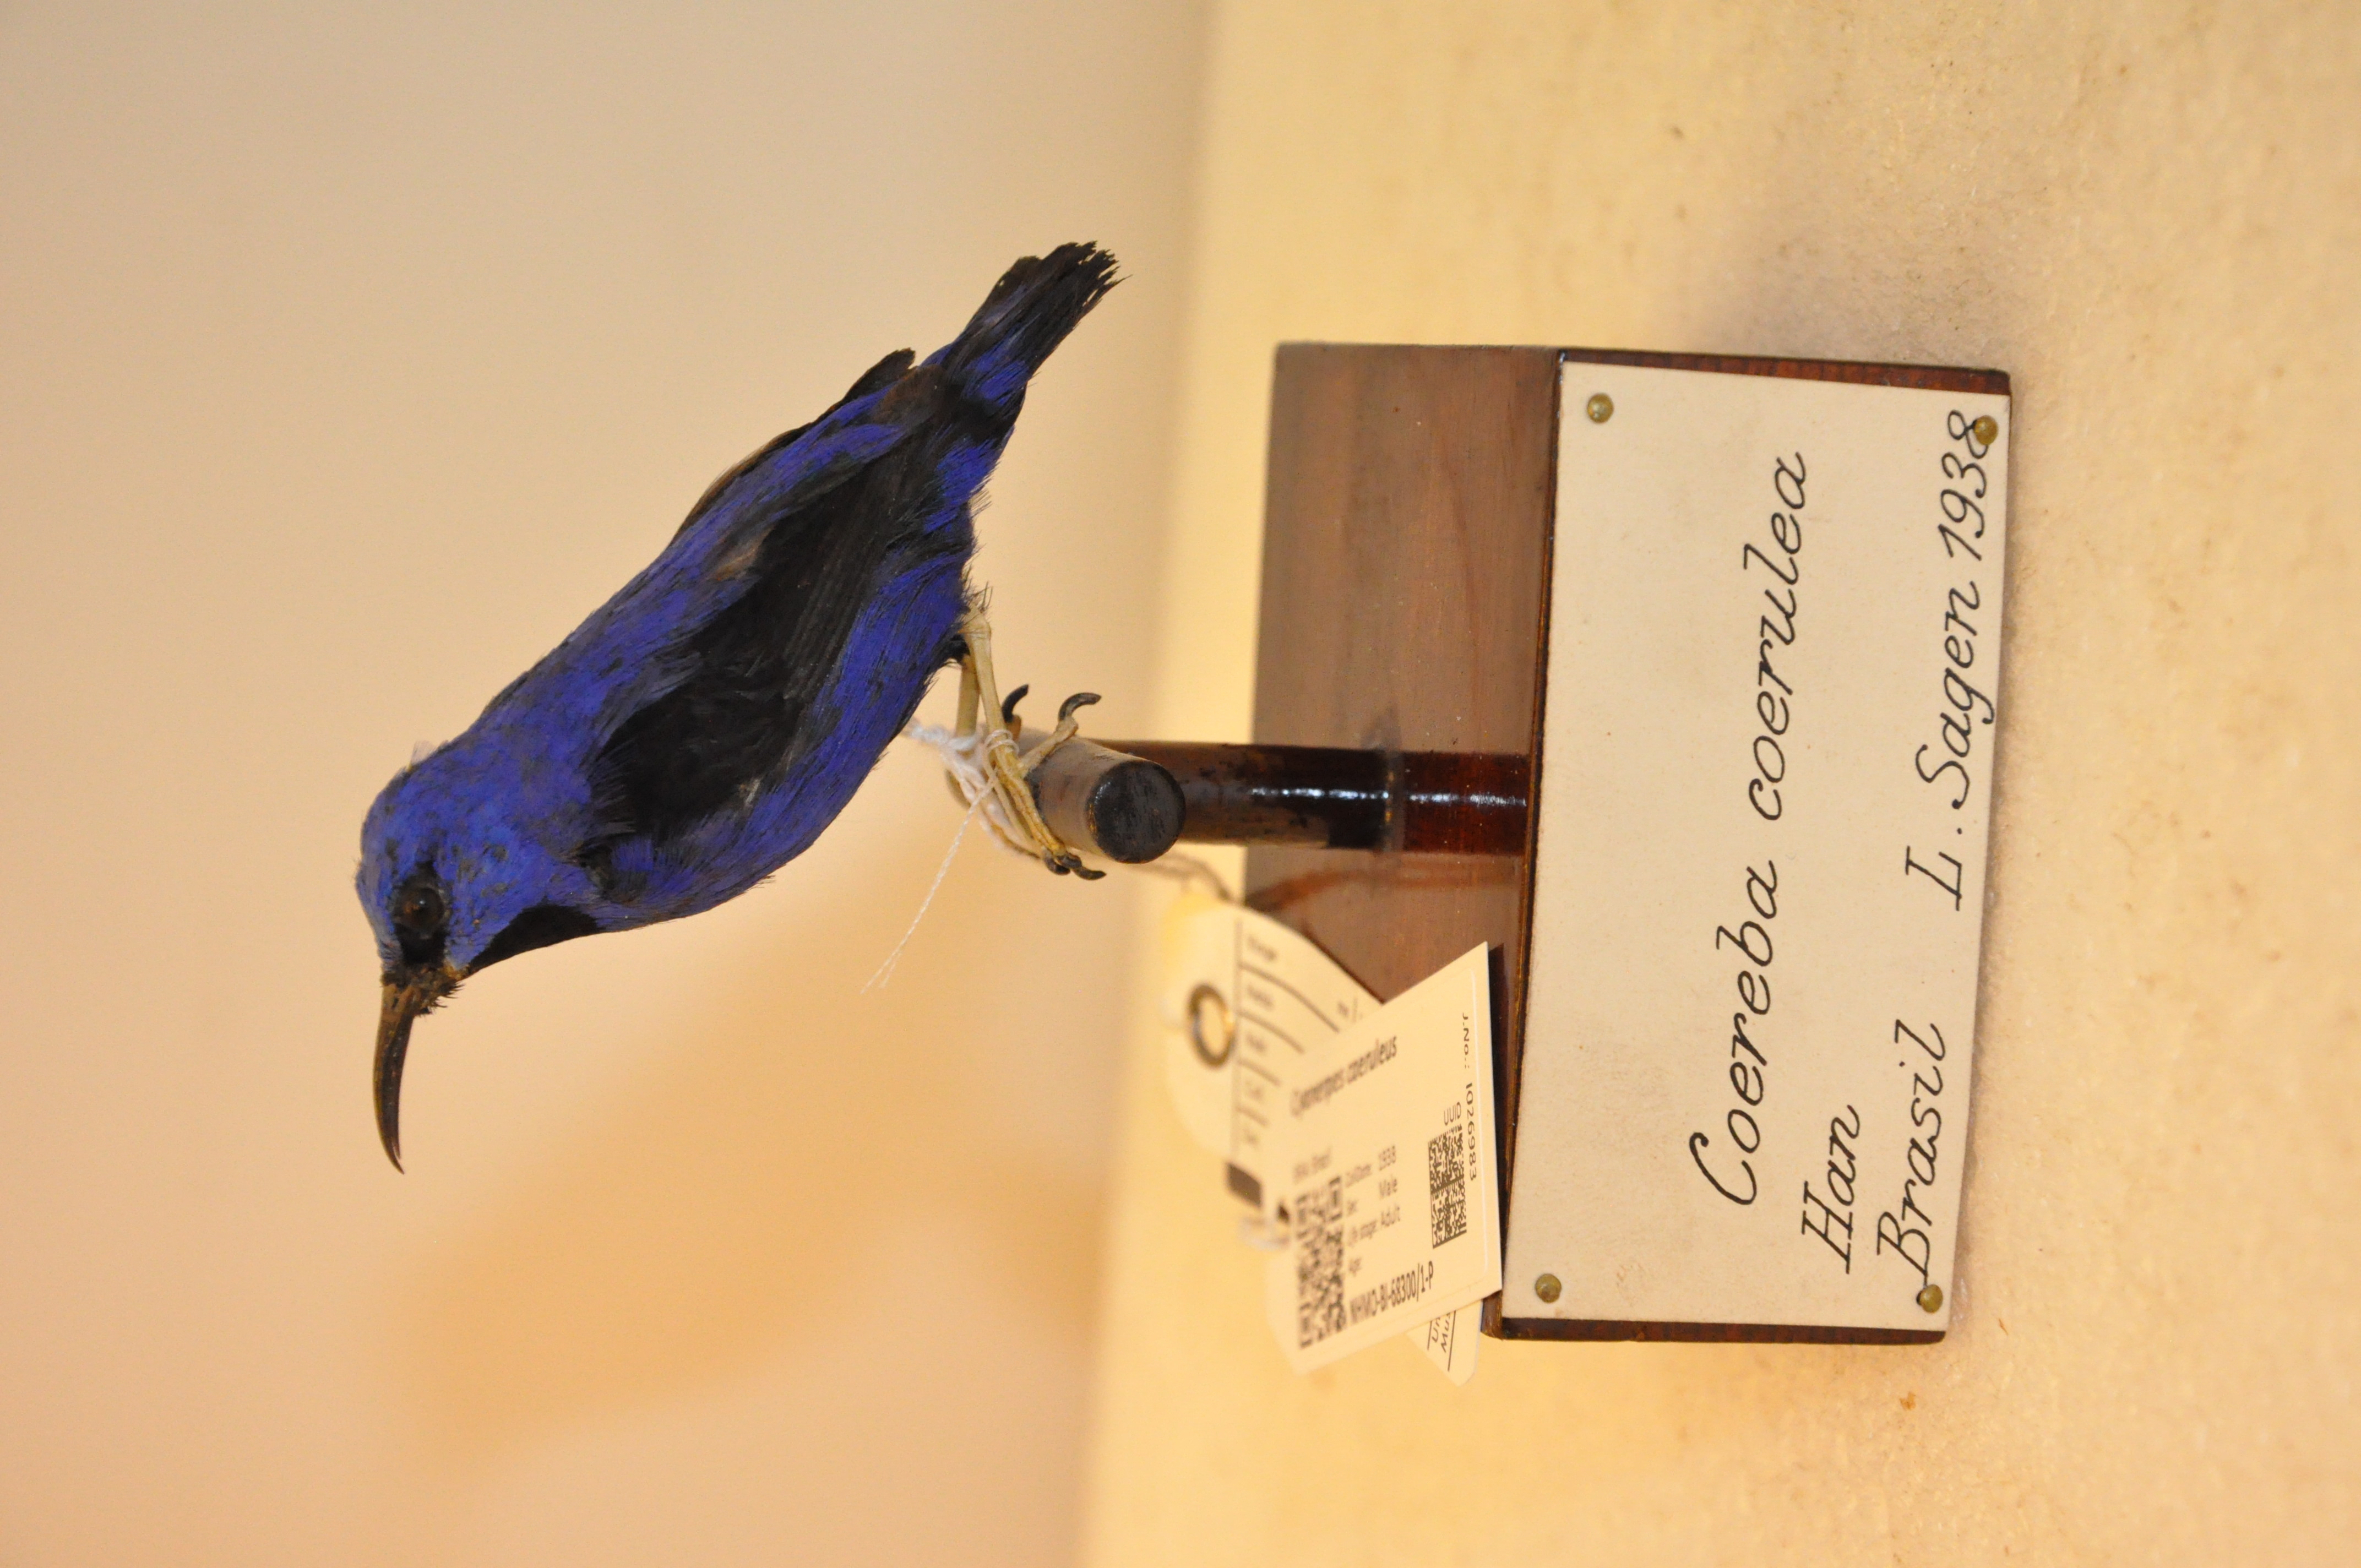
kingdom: Animalia
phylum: Chordata
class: Aves
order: Passeriformes
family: Thraupidae
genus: Cyanerpes
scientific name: Cyanerpes caeruleus
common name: Purple honeycreeper
